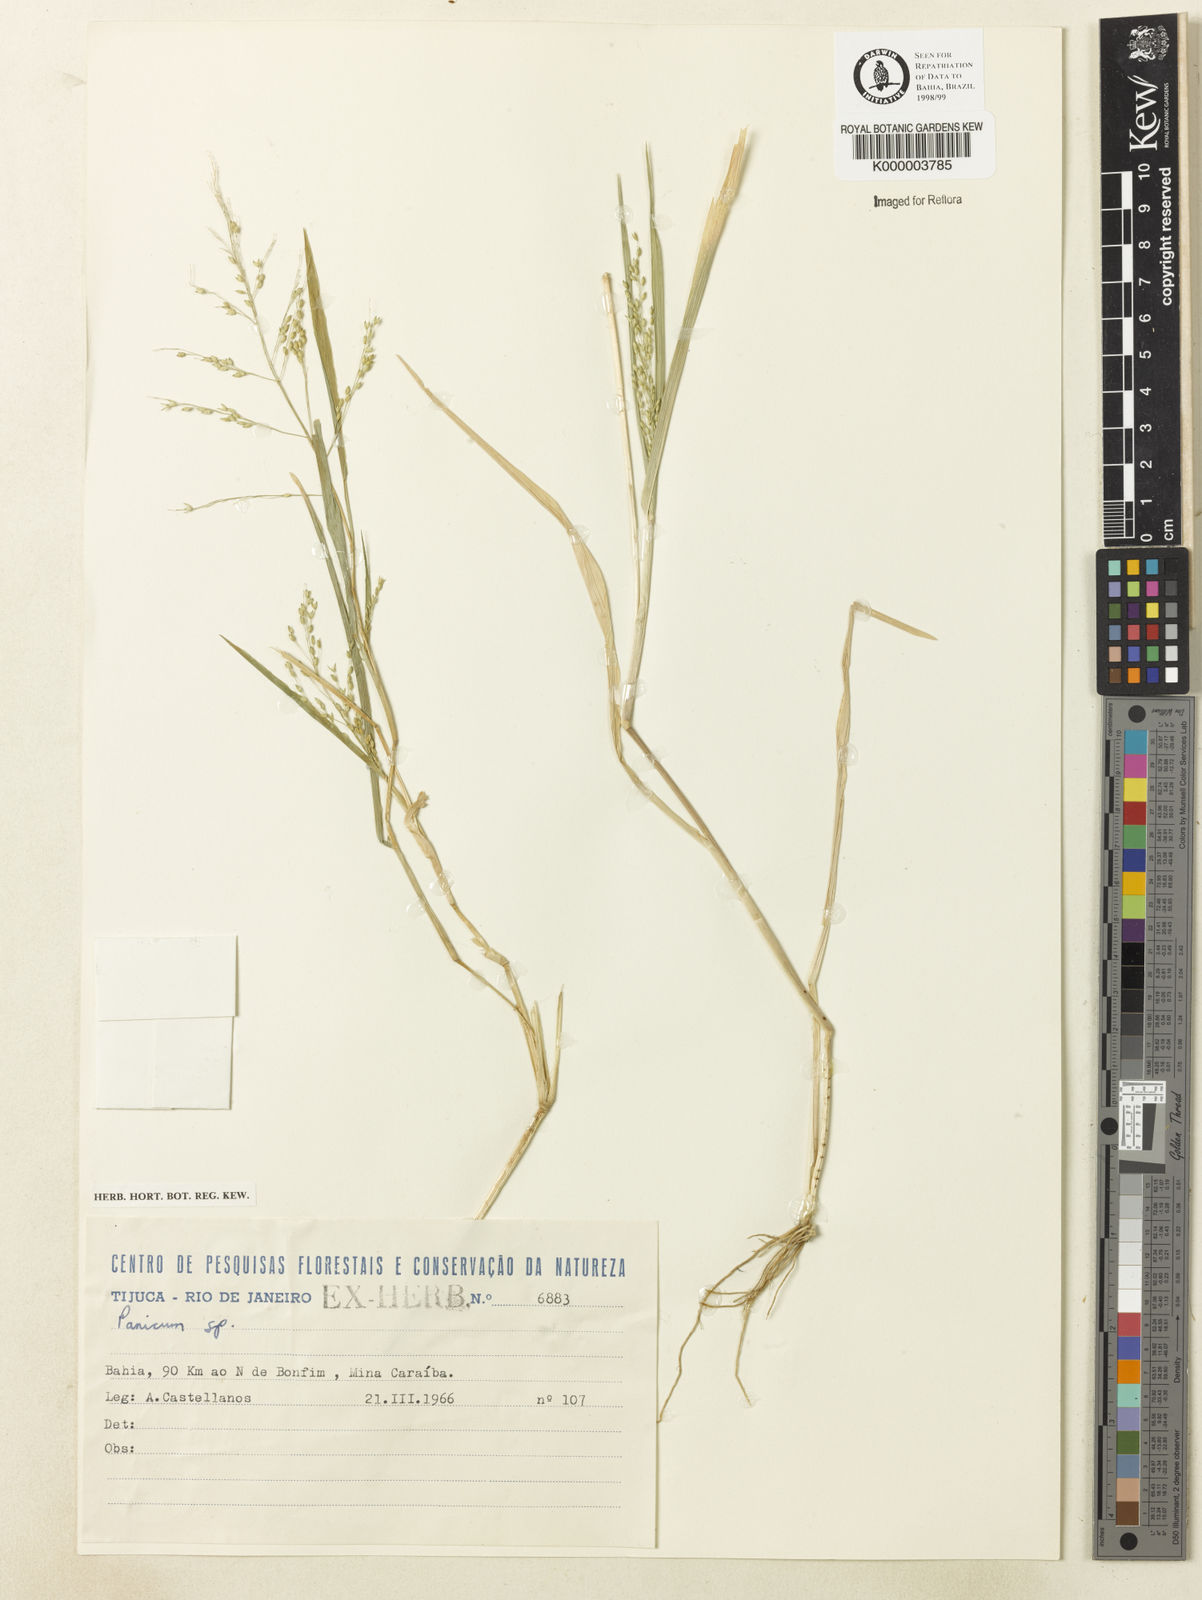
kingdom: Plantae
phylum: Tracheophyta
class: Liliopsida
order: Poales
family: Poaceae
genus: Panicum
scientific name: Panicum hirticaule
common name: Rough-stalk witchgrass
